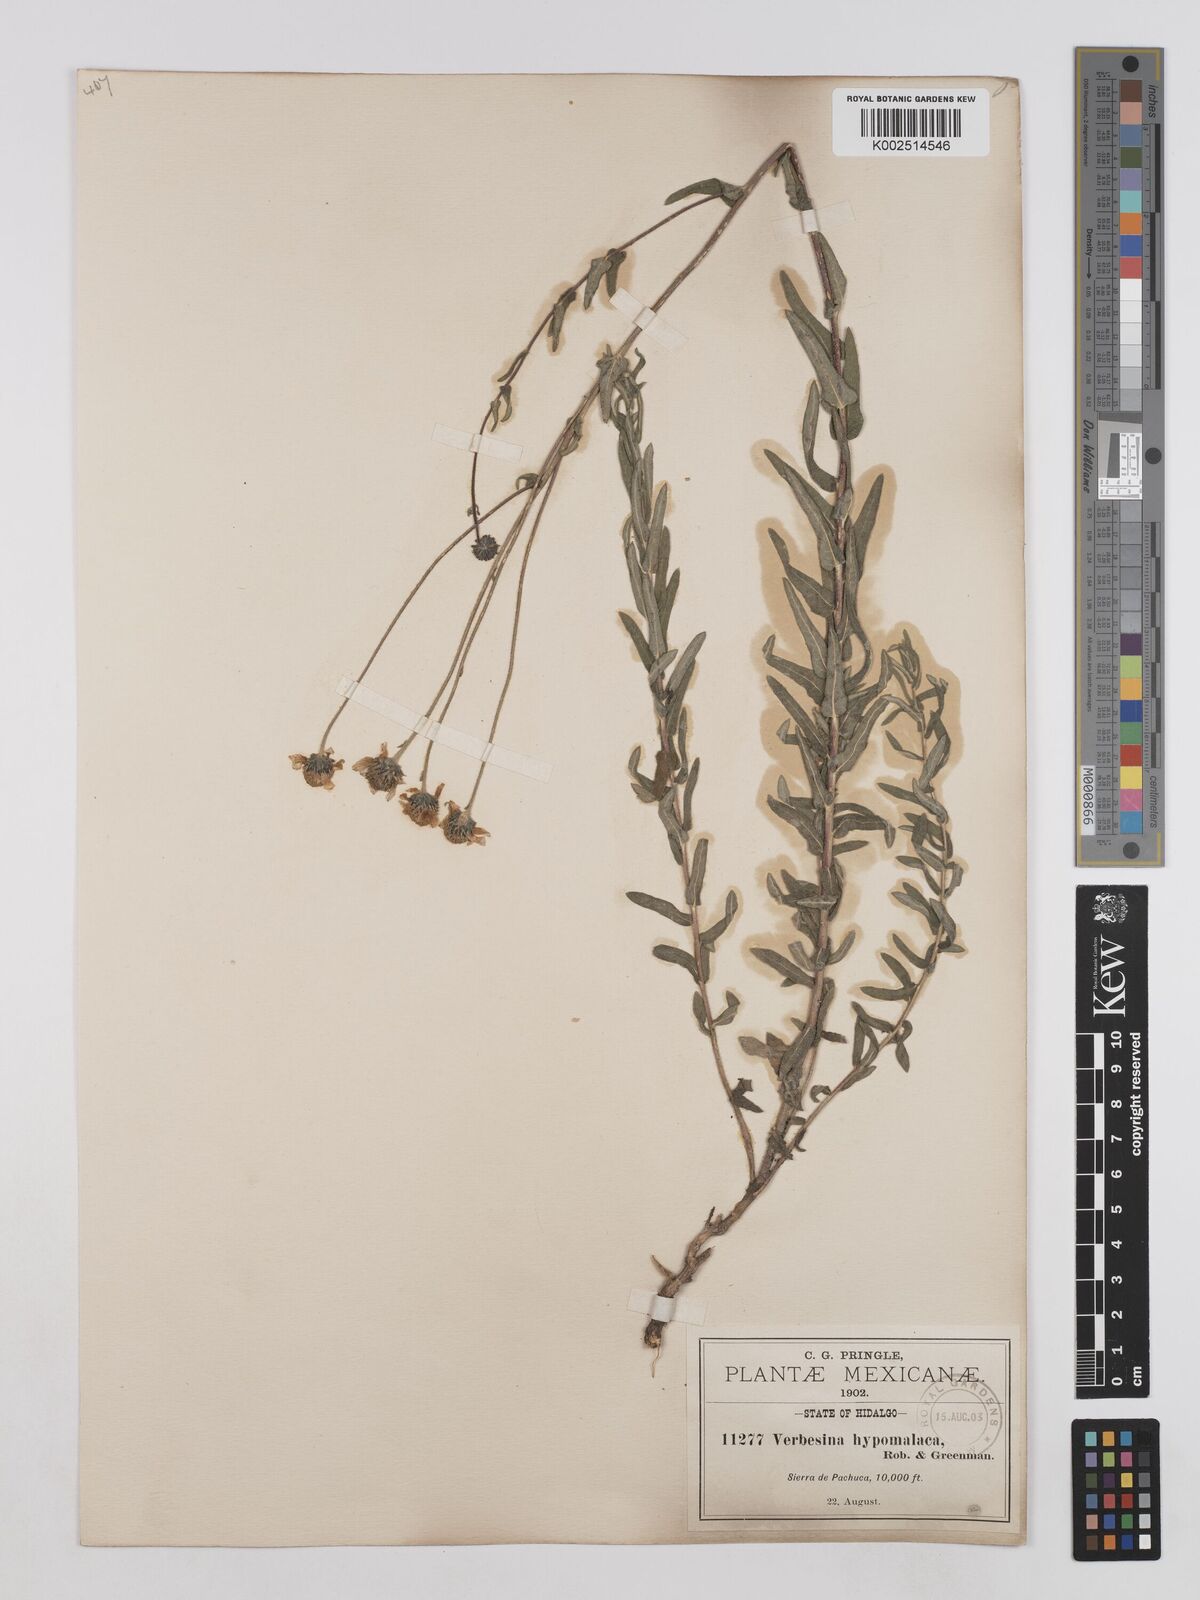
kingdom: Plantae
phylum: Tracheophyta
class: Magnoliopsida
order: Asterales
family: Asteraceae
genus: Verbesina
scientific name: Verbesina hypomalaca
